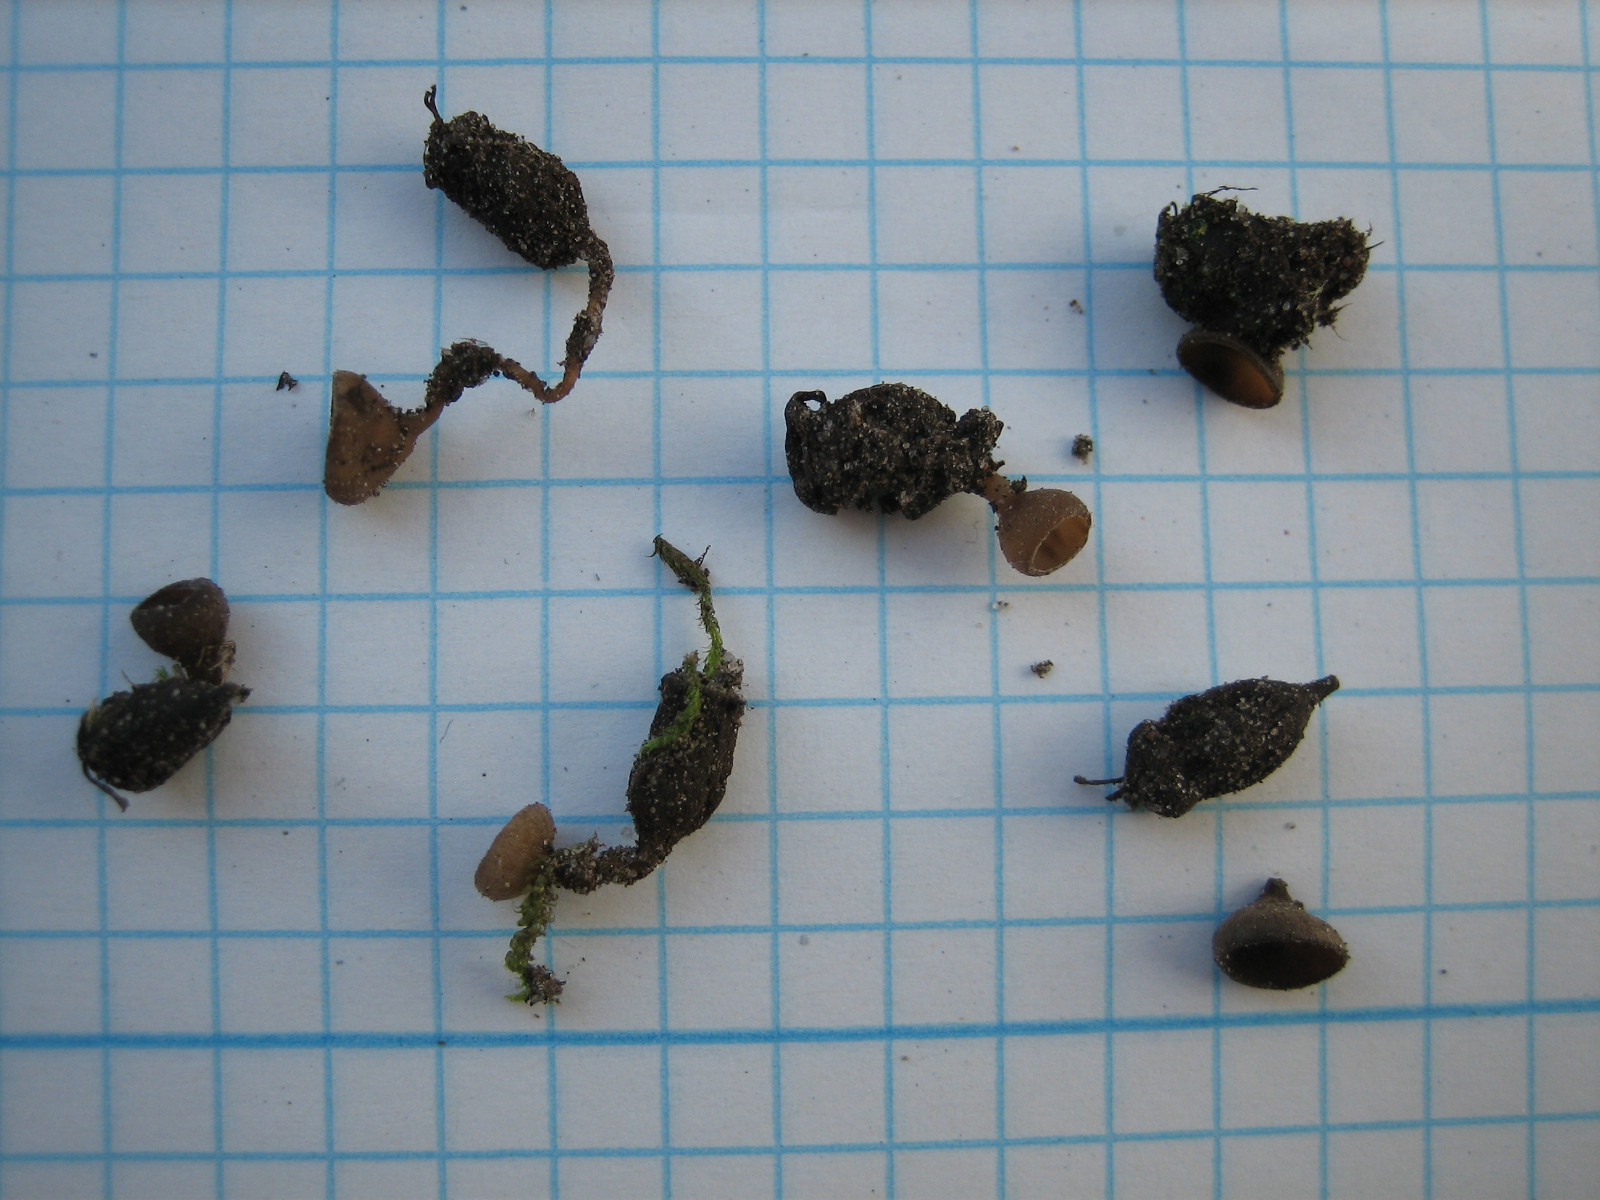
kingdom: Fungi
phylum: Ascomycota
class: Leotiomycetes
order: Helotiales
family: Sclerotiniaceae
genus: Monilinia
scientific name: Monilinia johnsonii
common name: tjørnebær-knoldskive
